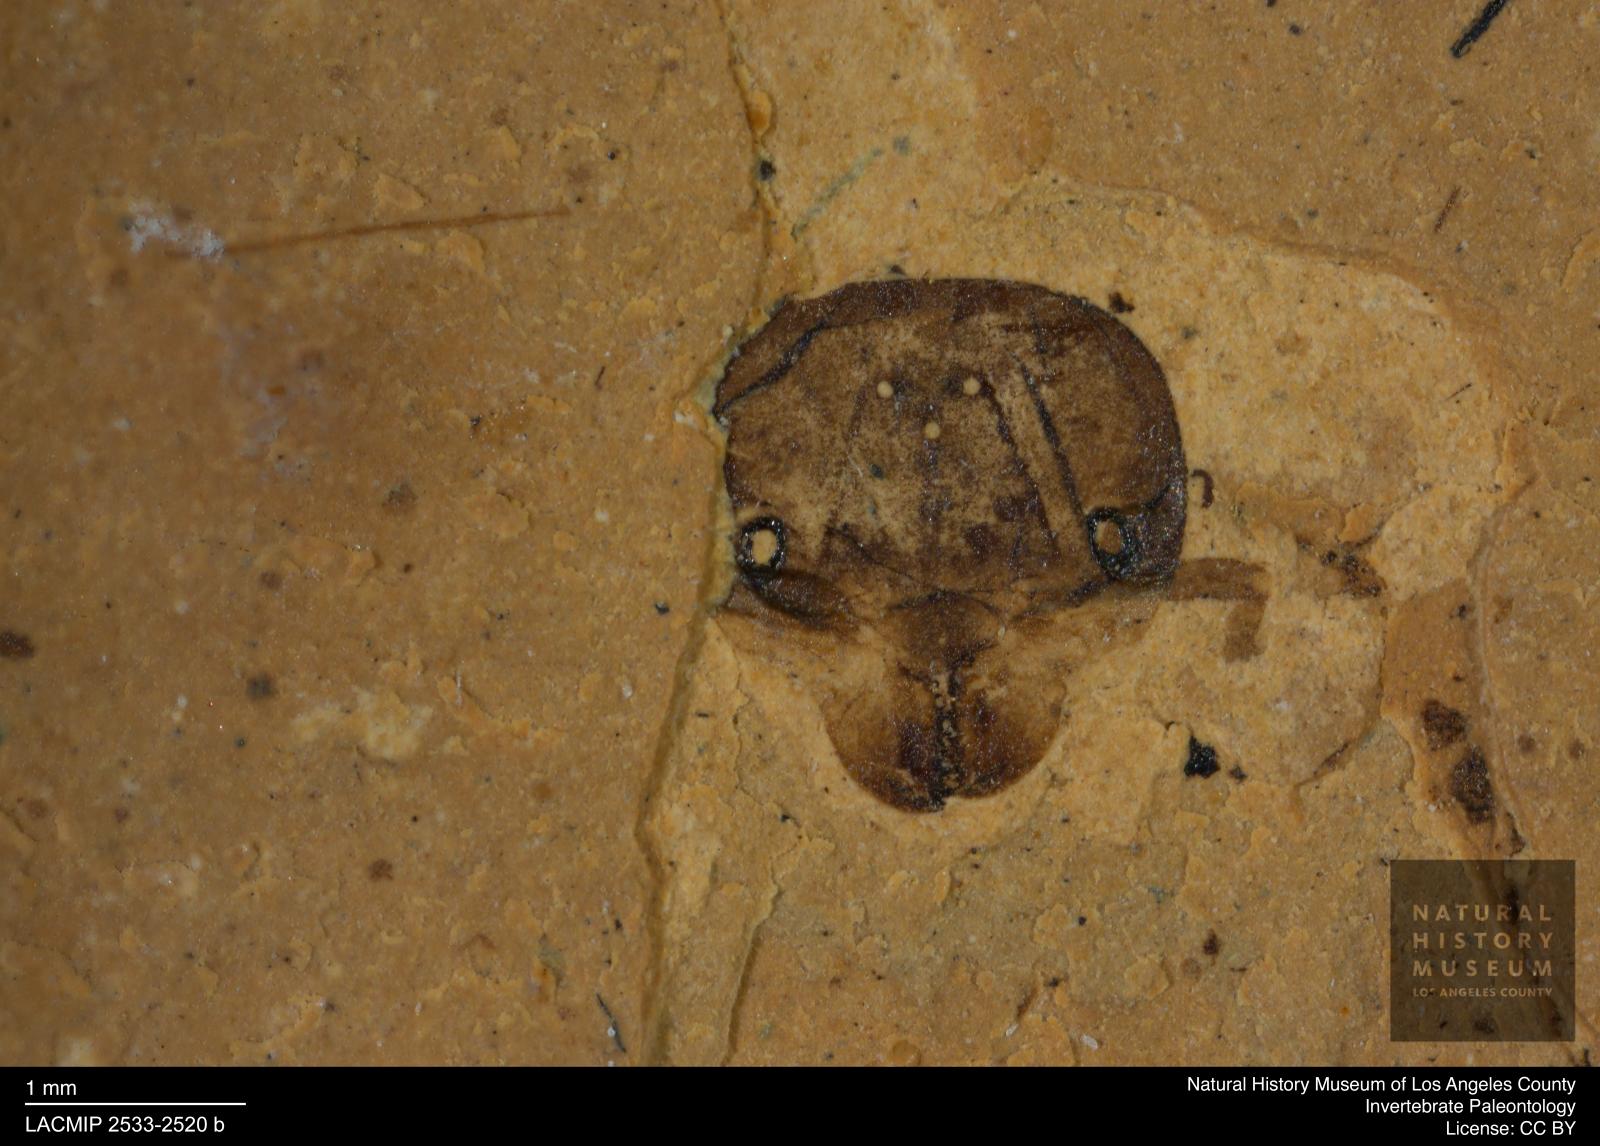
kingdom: Animalia
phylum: Arthropoda
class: Insecta
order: Hymenoptera
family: Formicidae
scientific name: Formicidae
